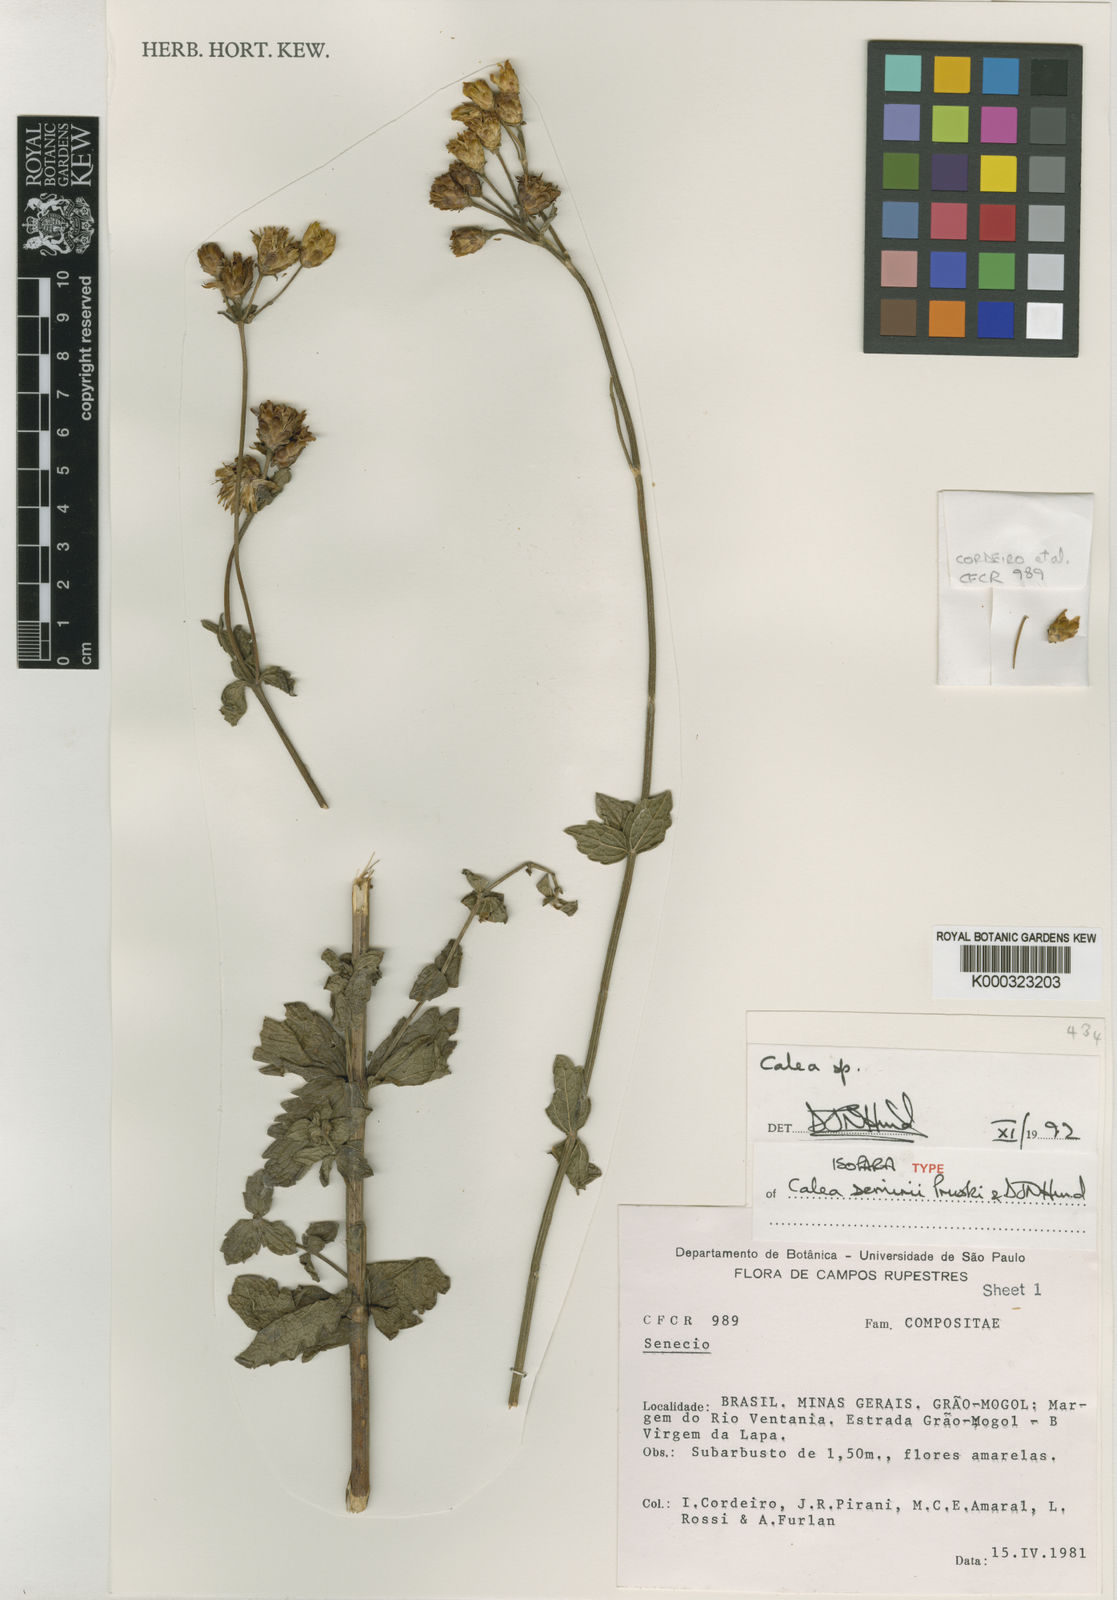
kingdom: Plantae
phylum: Tracheophyta
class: Magnoliopsida
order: Asterales
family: Asteraceae
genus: Calea
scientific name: Calea semirii
